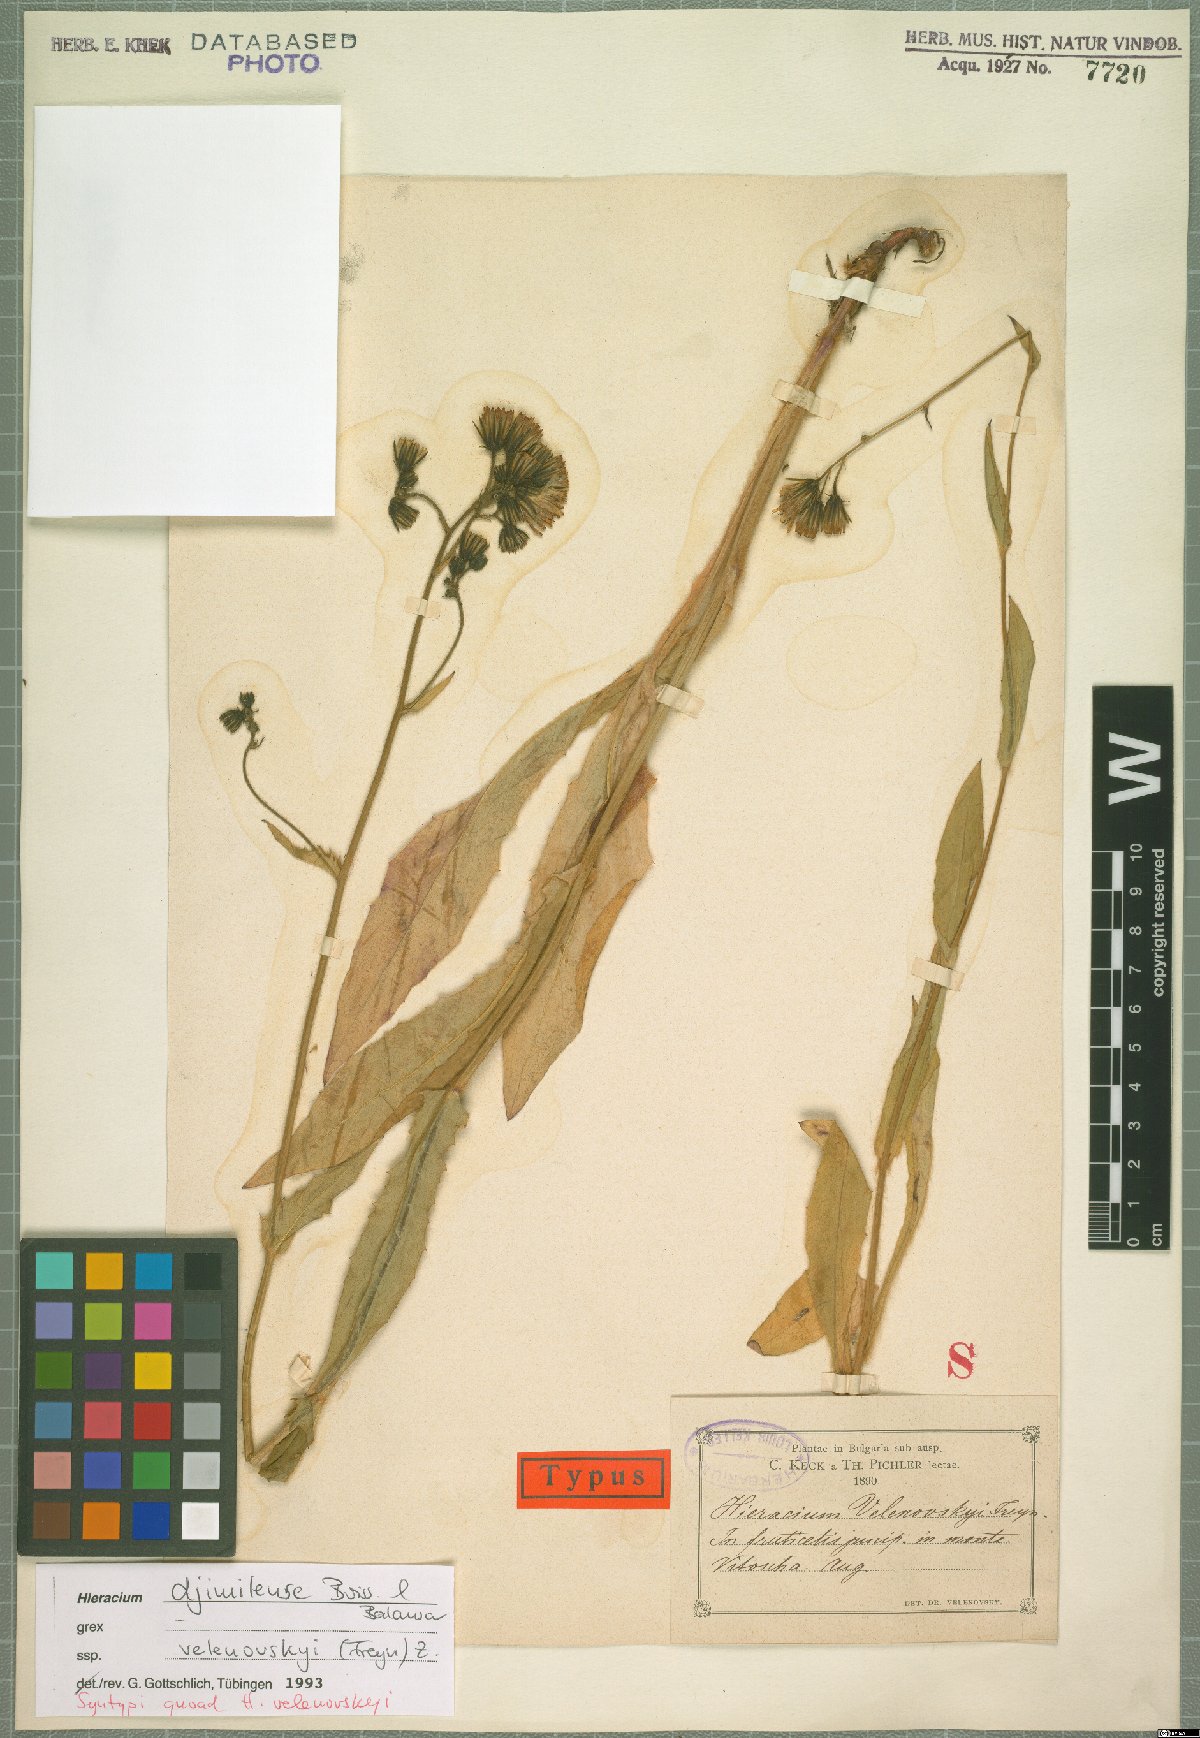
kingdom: Plantae
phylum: Tracheophyta
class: Magnoliopsida
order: Asterales
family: Asteraceae
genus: Hieracium
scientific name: Hieracium djimilense
